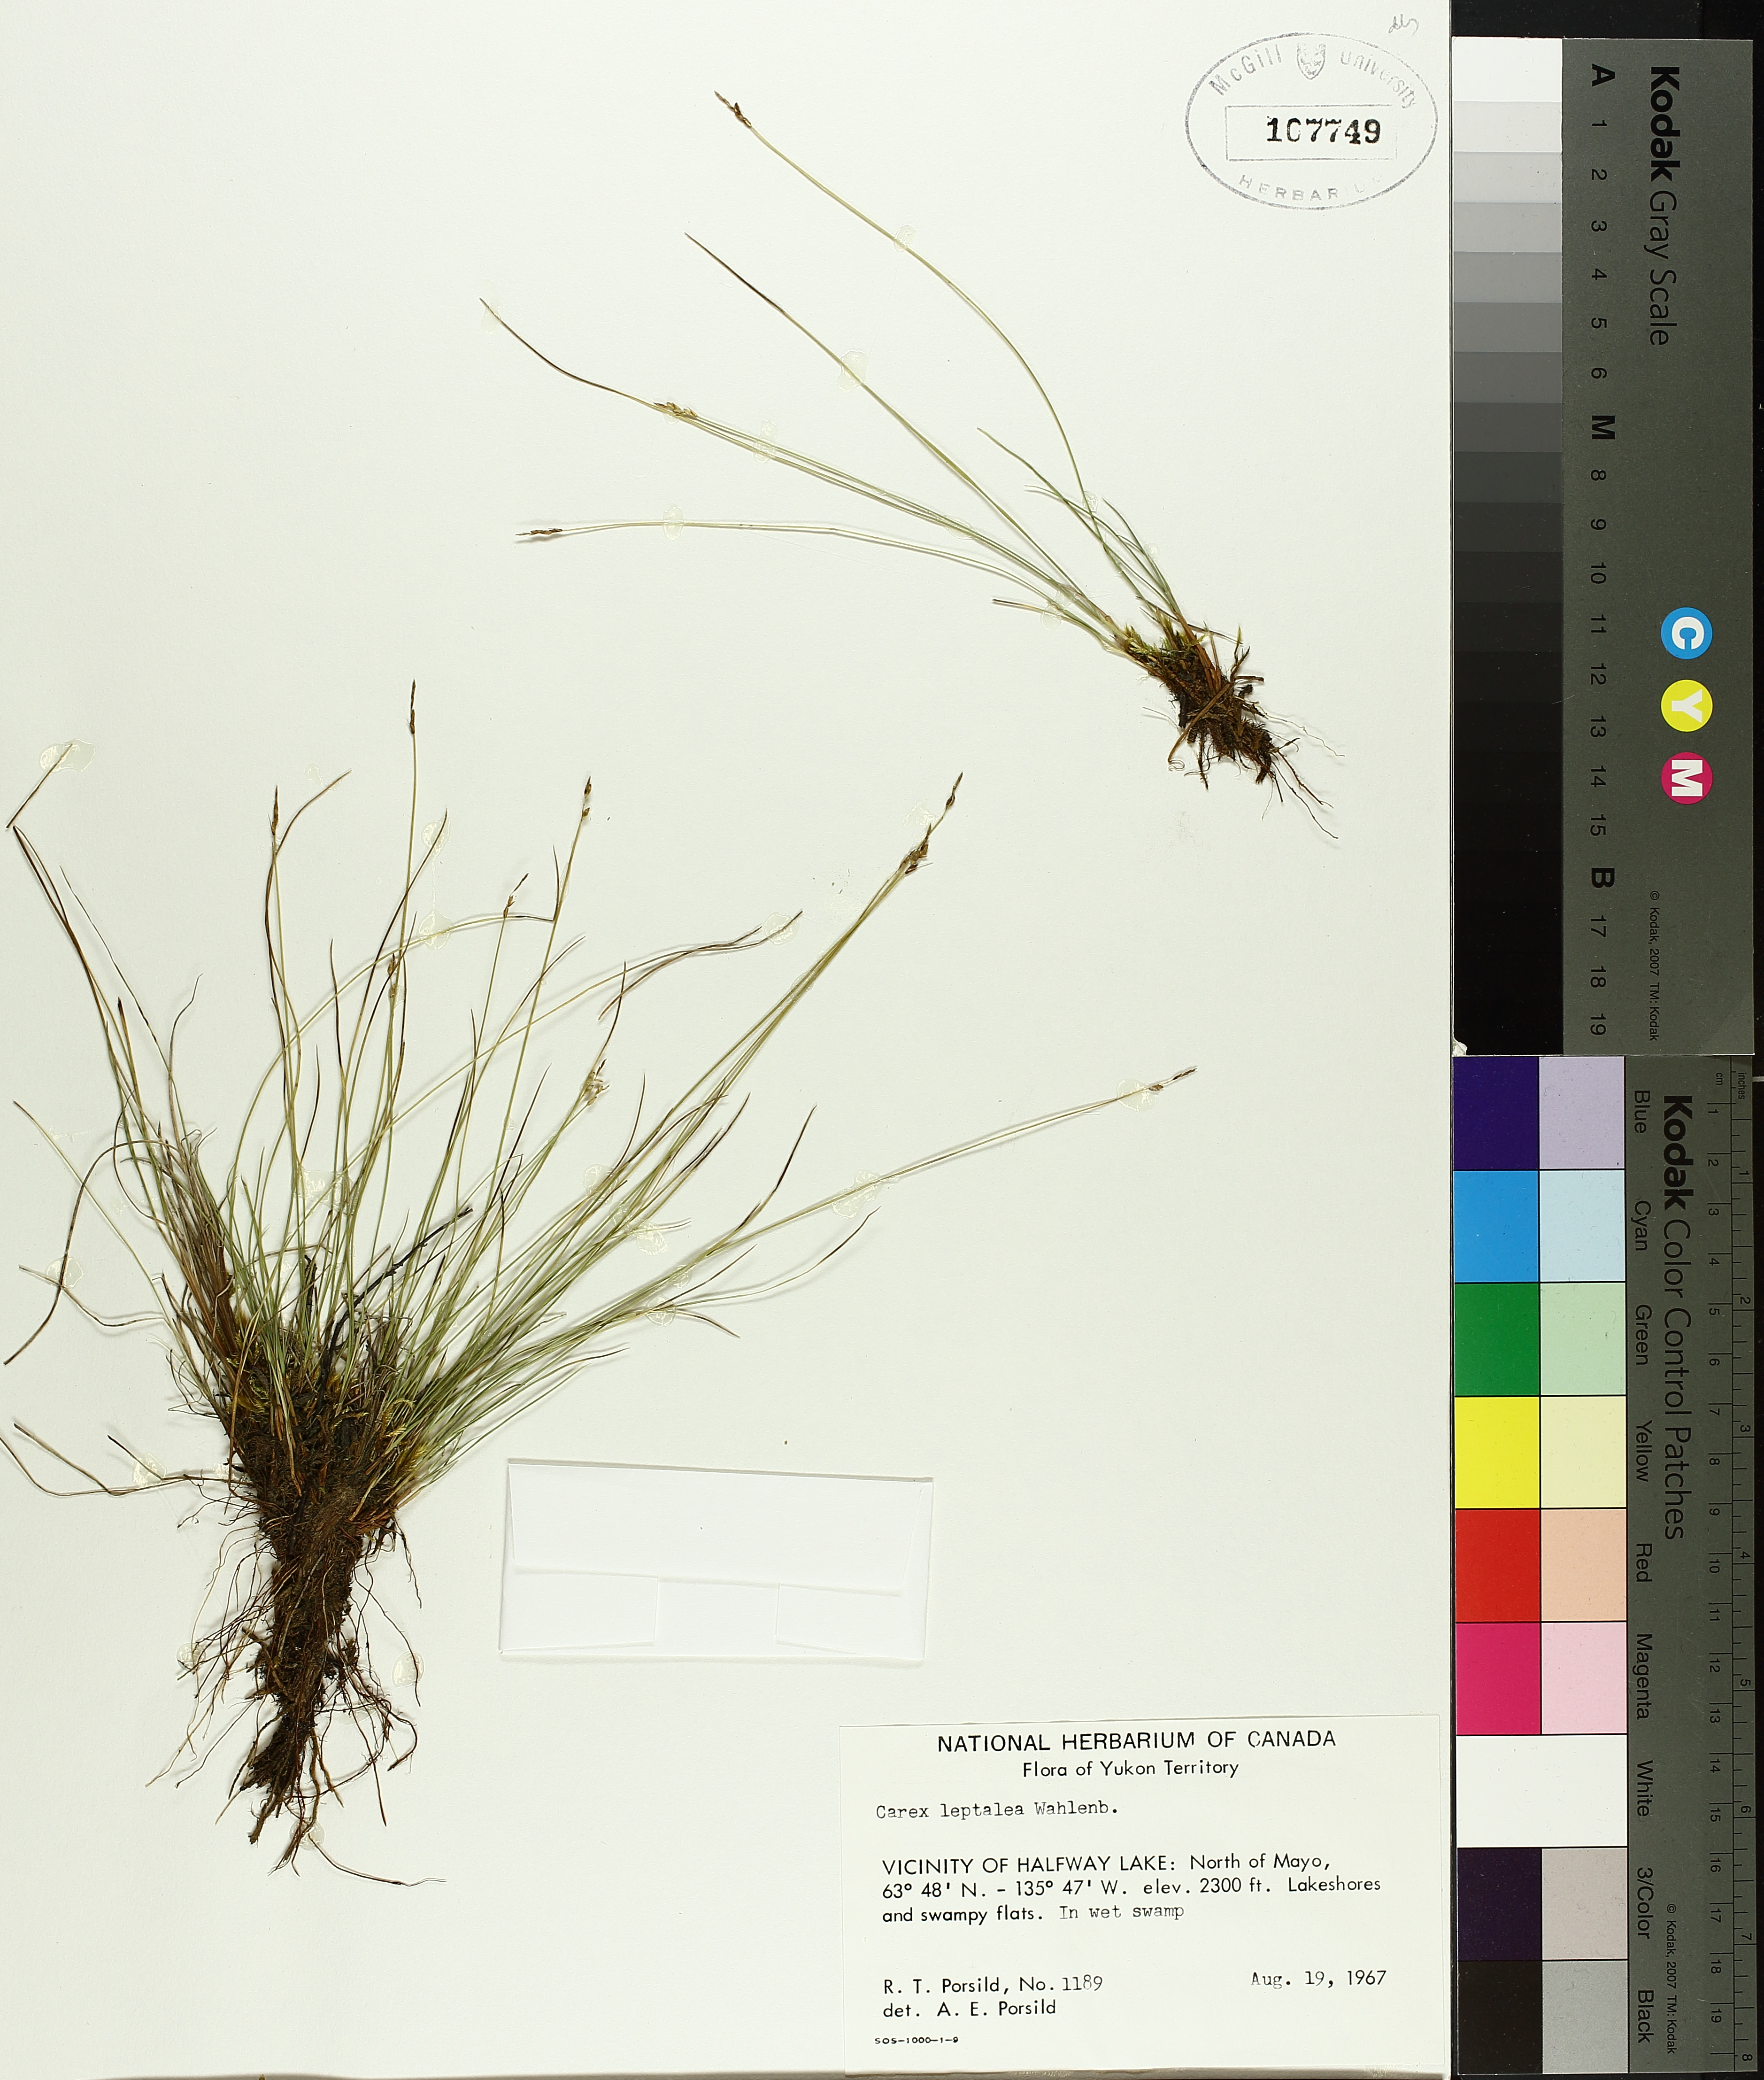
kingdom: Plantae
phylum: Tracheophyta
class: Liliopsida
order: Poales
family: Cyperaceae
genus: Carex
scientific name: Carex leptalea
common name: Bristly-stalked sedge
